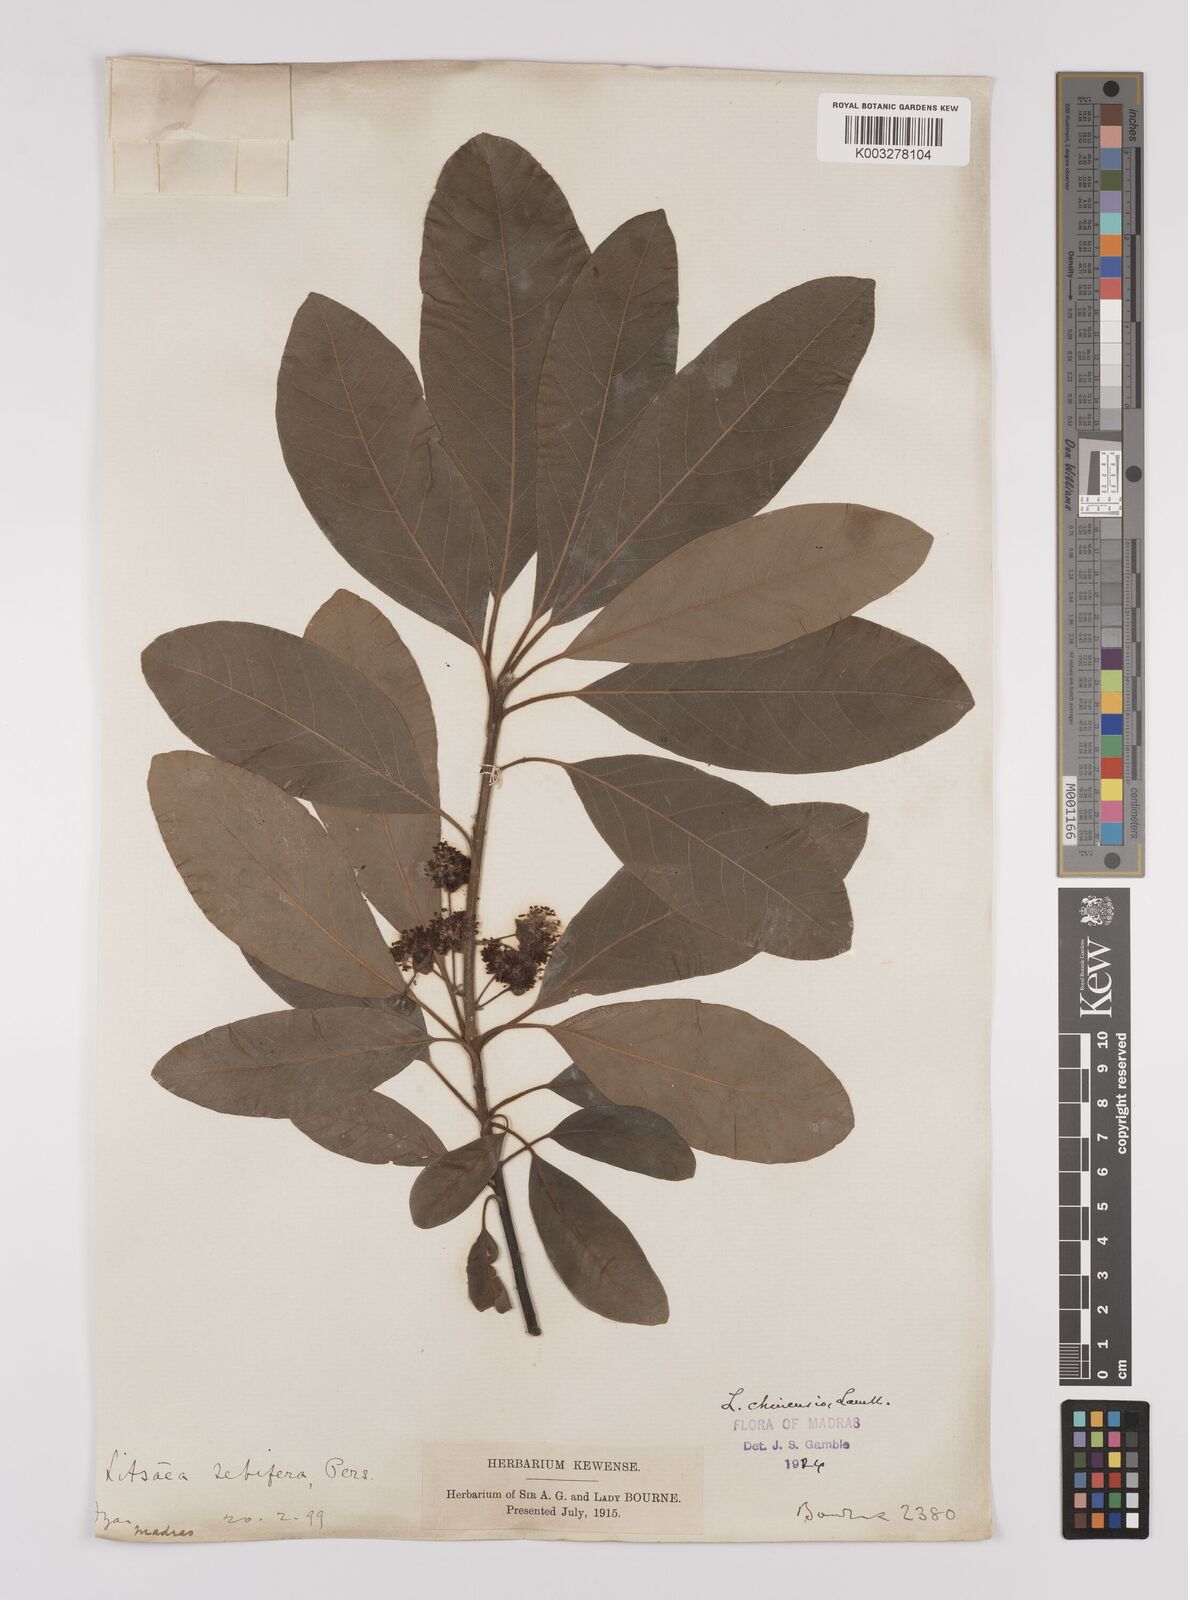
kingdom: Plantae
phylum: Tracheophyta
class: Magnoliopsida
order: Laurales
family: Lauraceae
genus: Litsea
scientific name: Litsea
